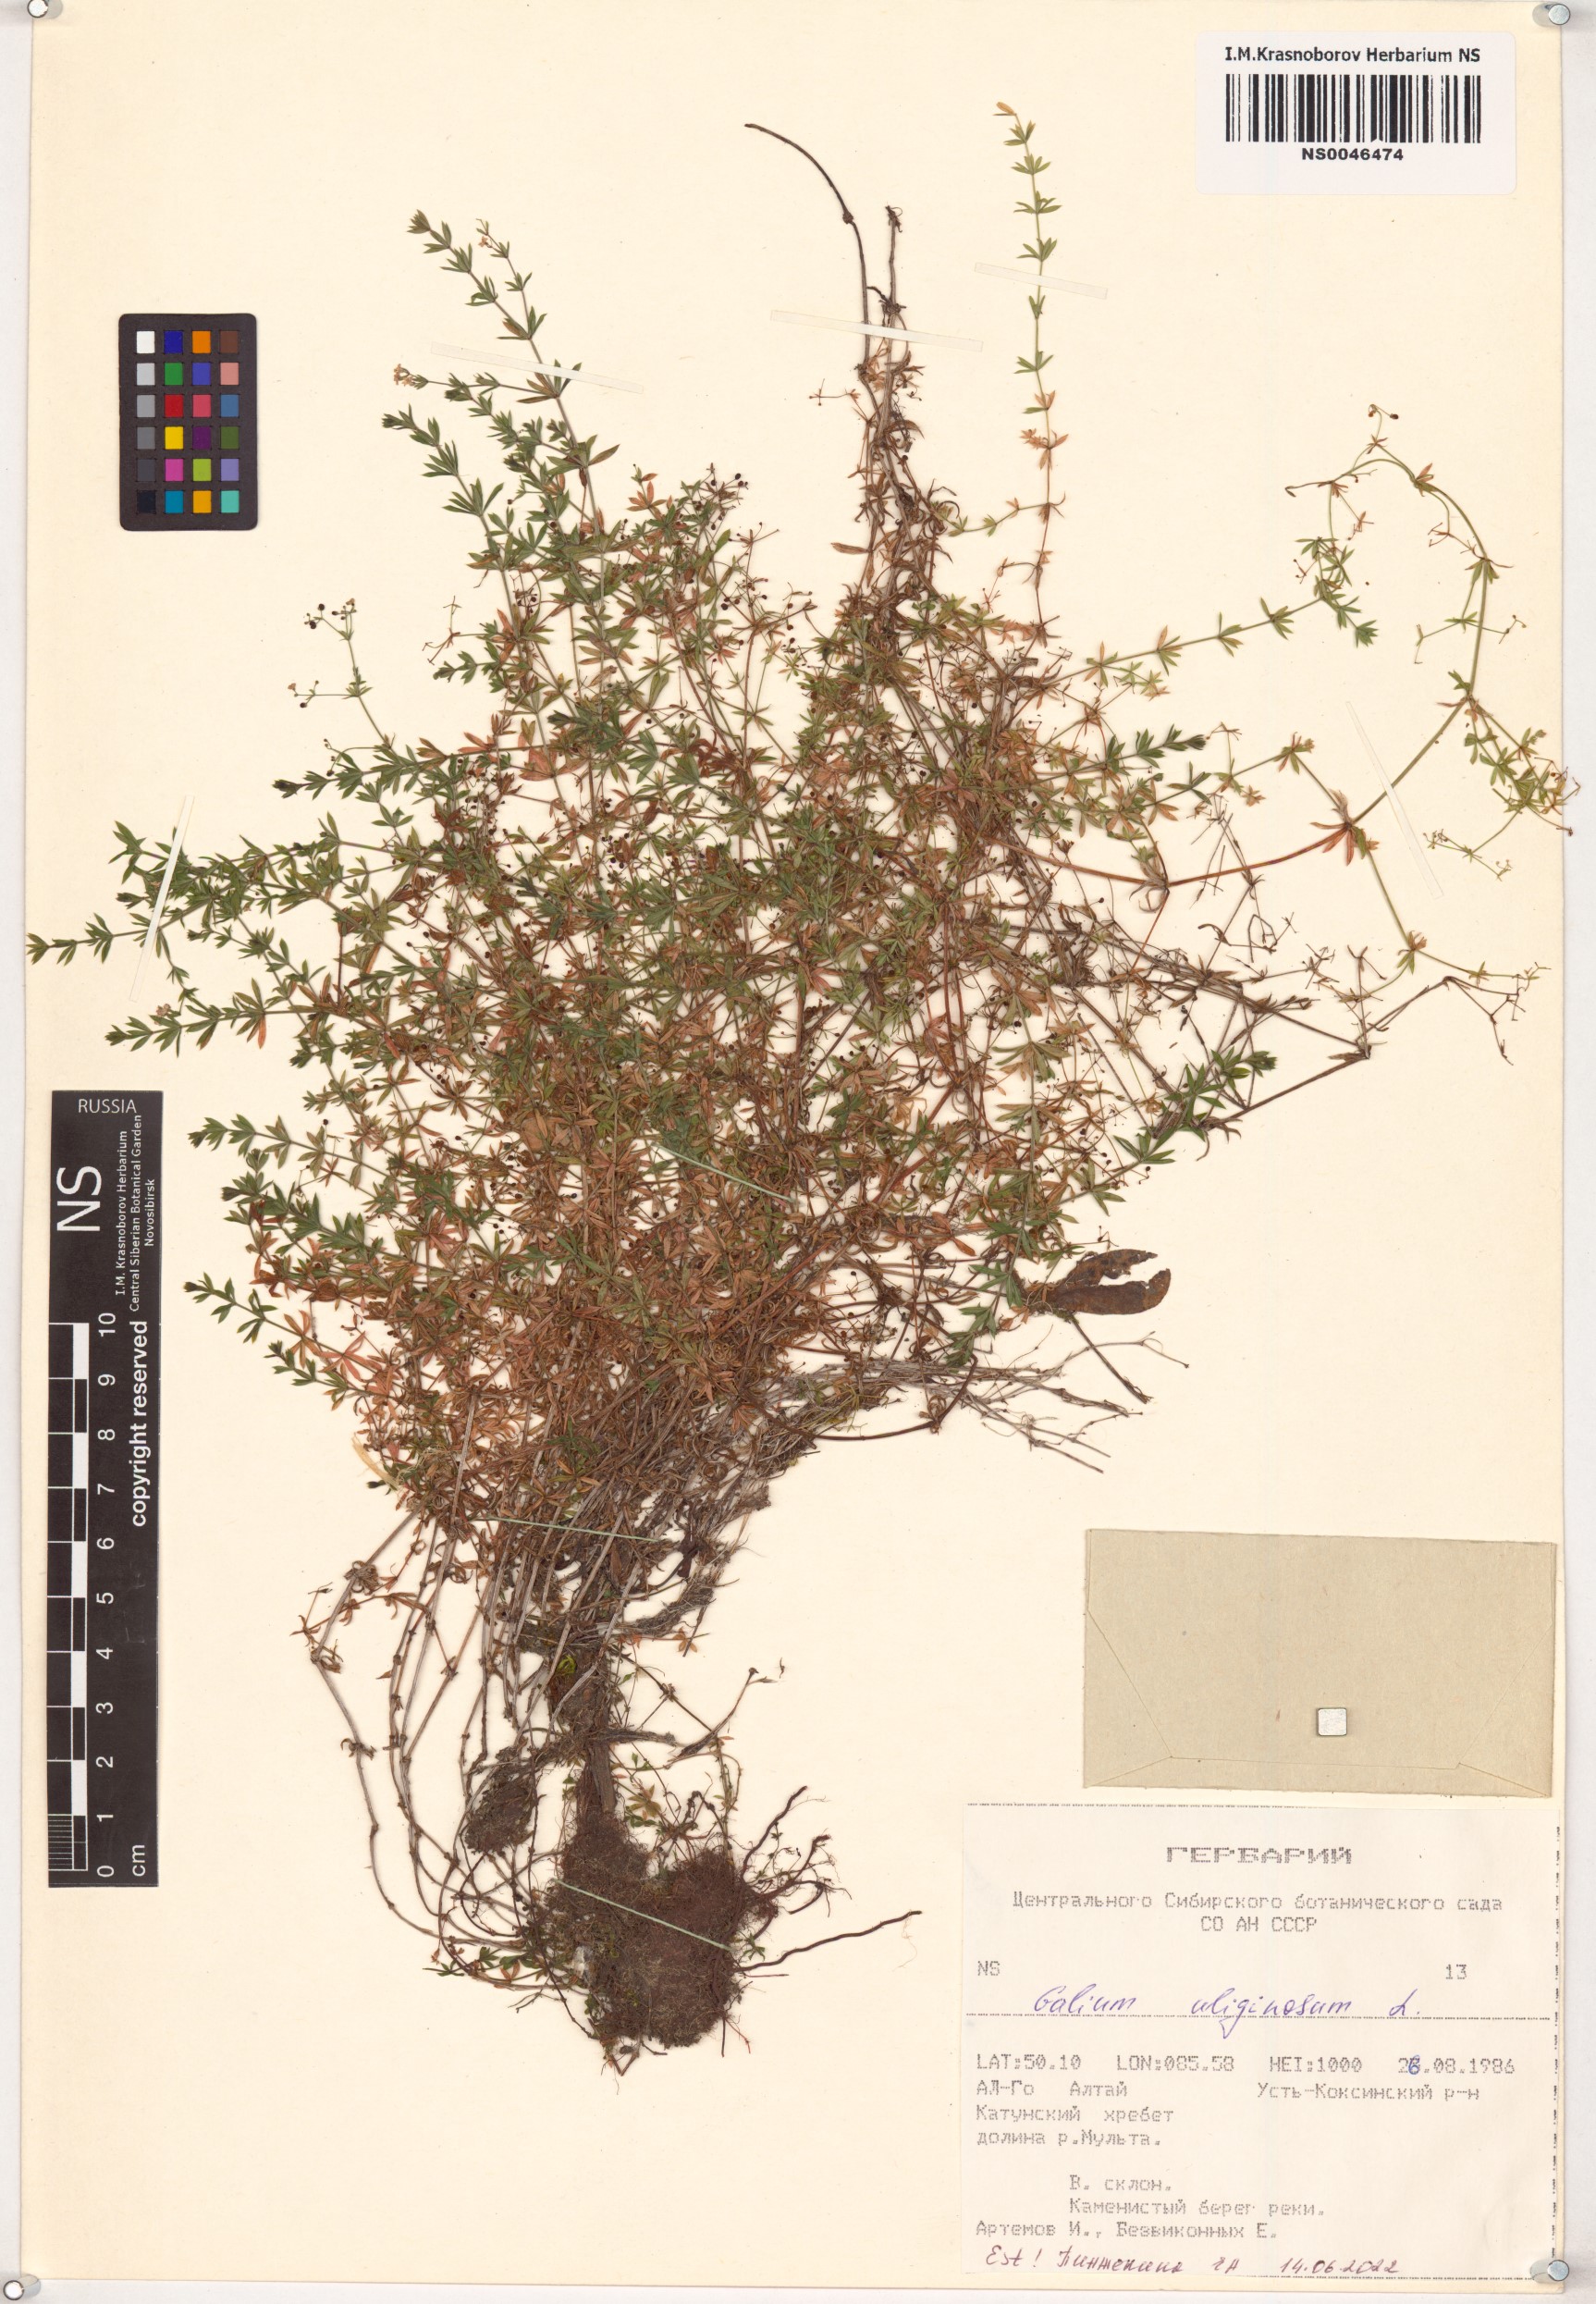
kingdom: Plantae
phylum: Tracheophyta
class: Magnoliopsida
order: Gentianales
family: Rubiaceae
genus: Galium
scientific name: Galium uliginosum
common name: Fen bedstraw
